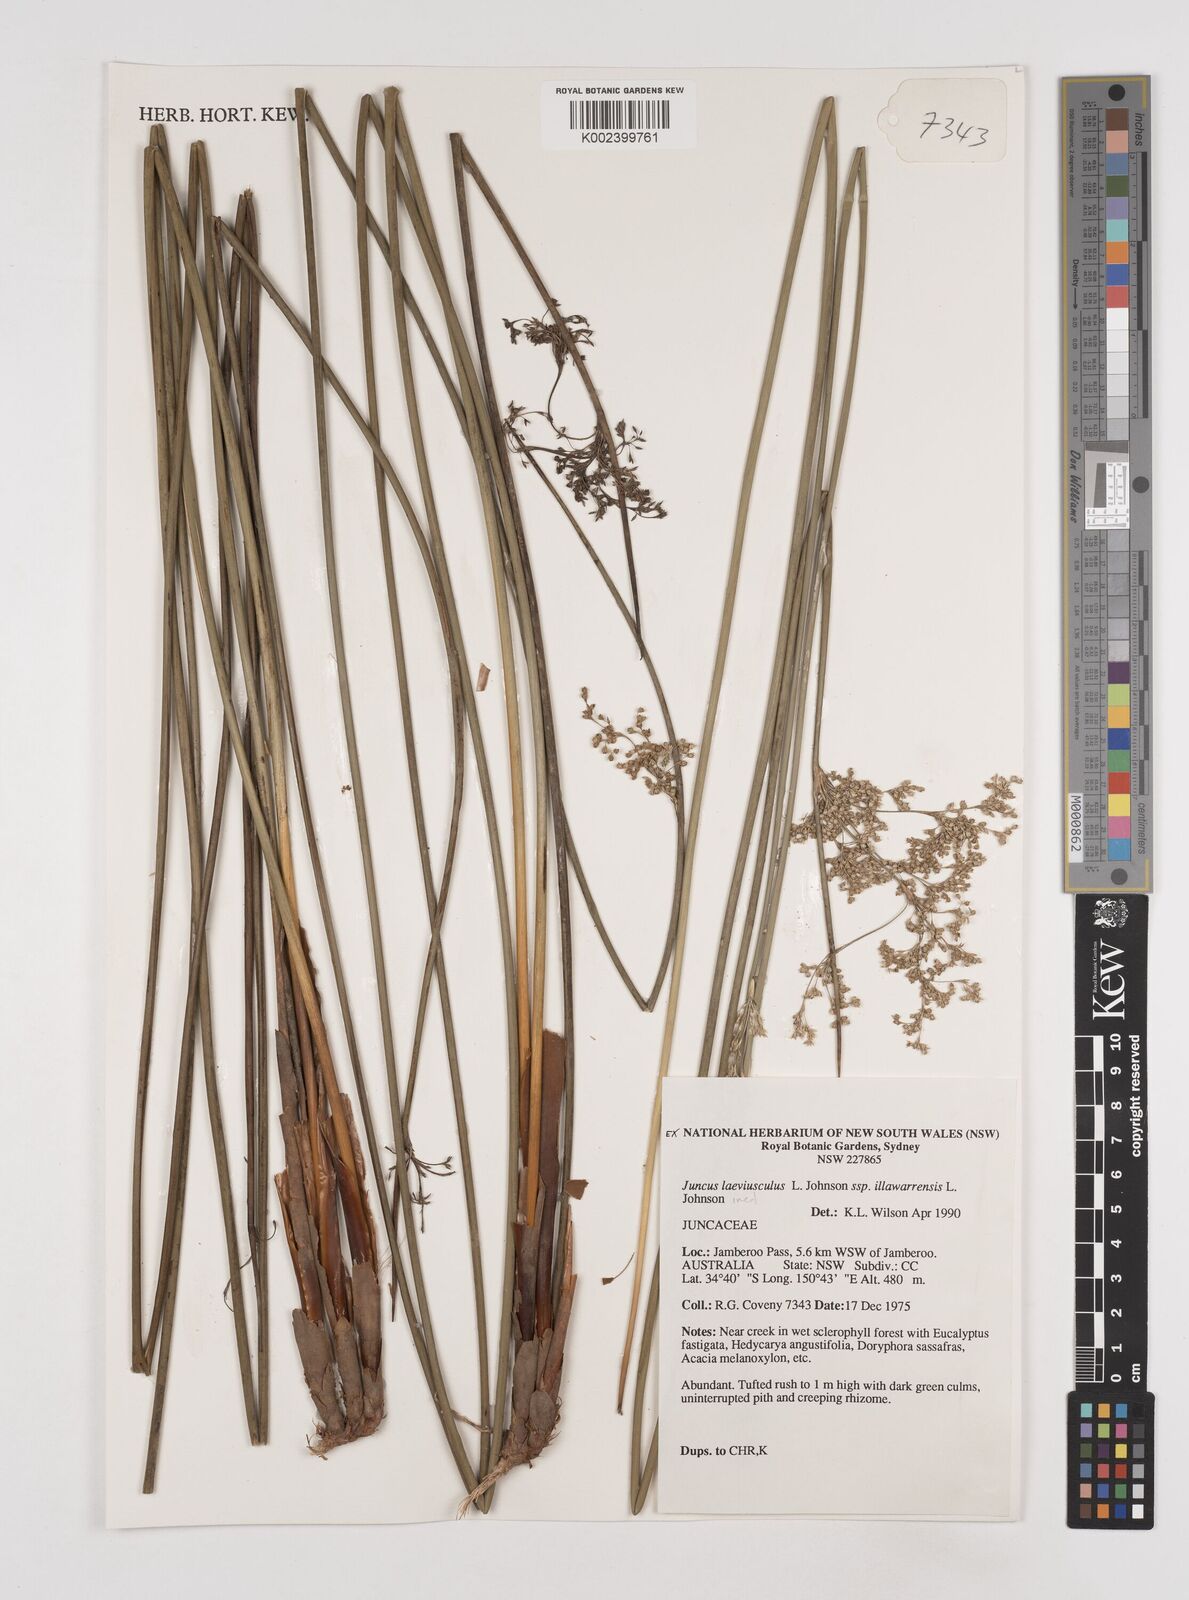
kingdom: Plantae
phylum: Tracheophyta
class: Liliopsida
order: Poales
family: Juncaceae
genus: Juncus
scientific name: Juncus laeviusculus
